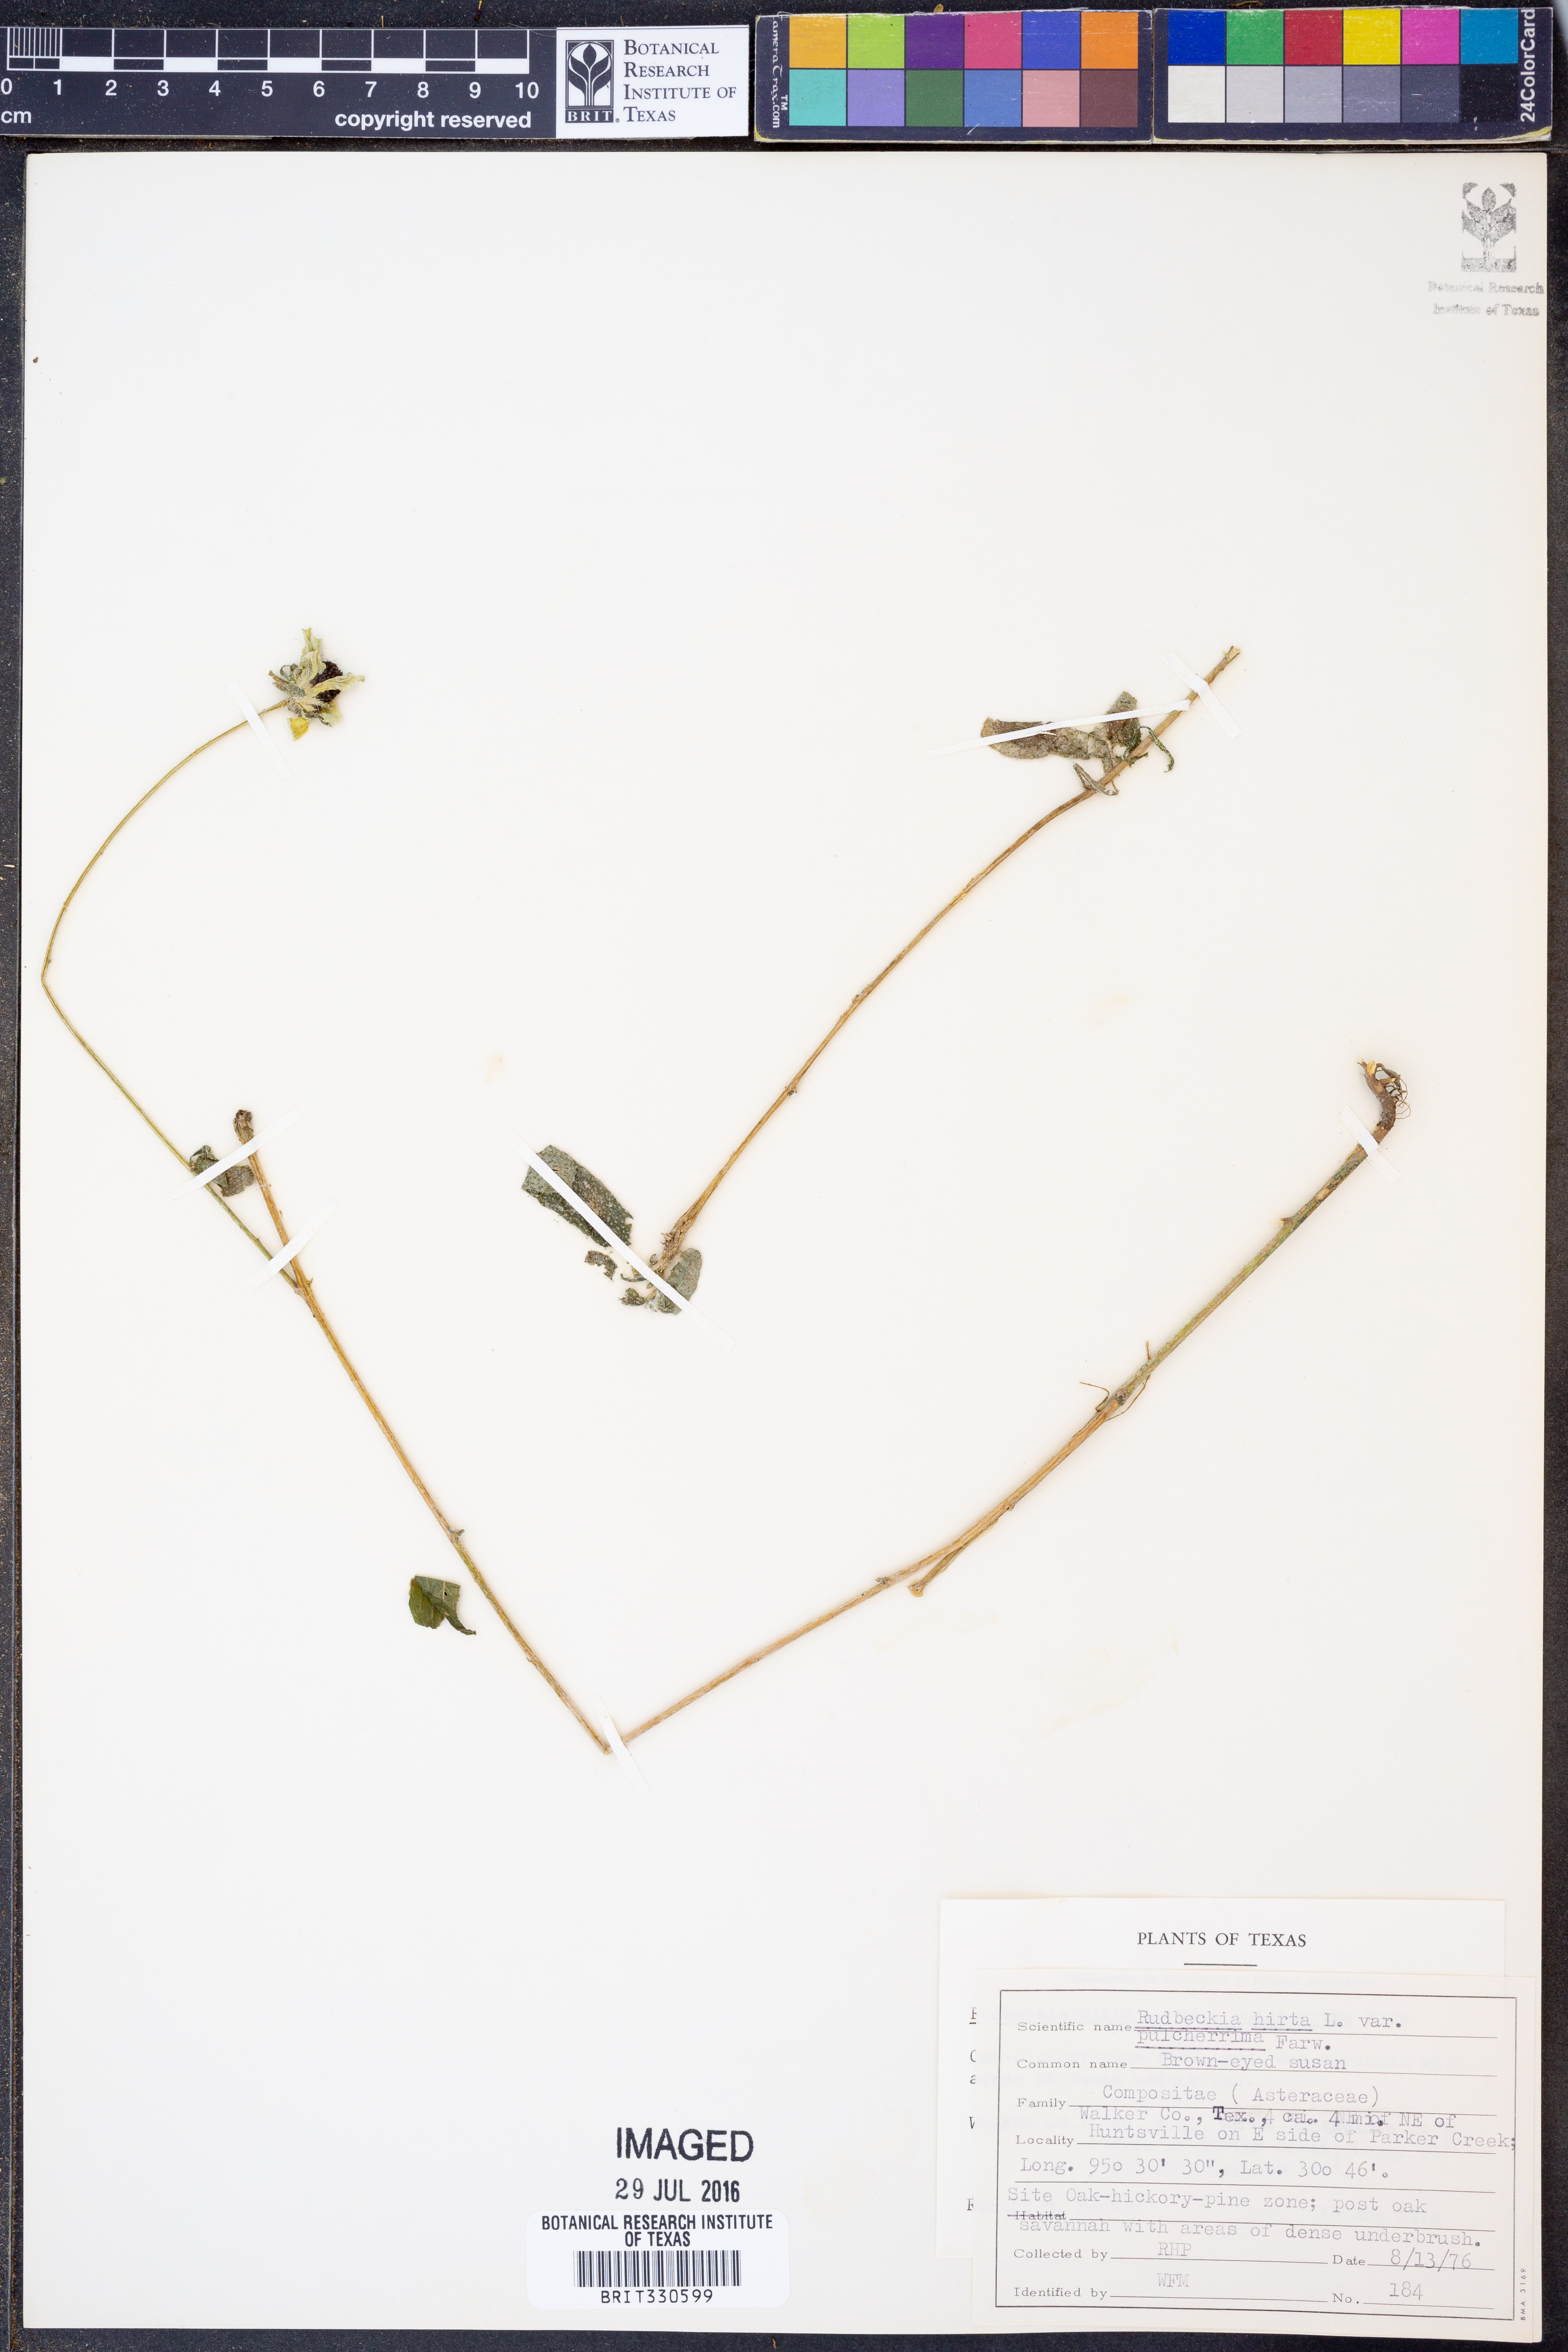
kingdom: Plantae
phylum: Tracheophyta
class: Magnoliopsida
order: Asterales
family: Asteraceae
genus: Rudbeckia
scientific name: Rudbeckia hirta
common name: Black-eyed-susan
